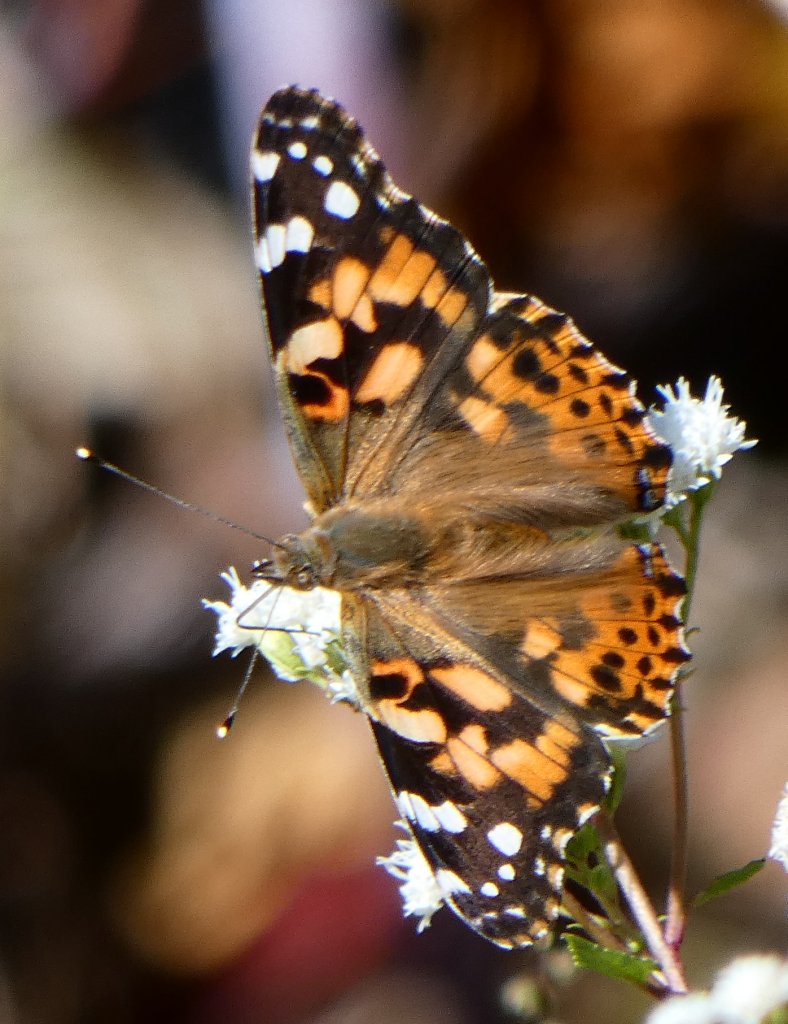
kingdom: Animalia
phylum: Arthropoda
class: Insecta
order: Lepidoptera
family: Nymphalidae
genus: Vanessa
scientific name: Vanessa cardui
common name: Painted Lady
